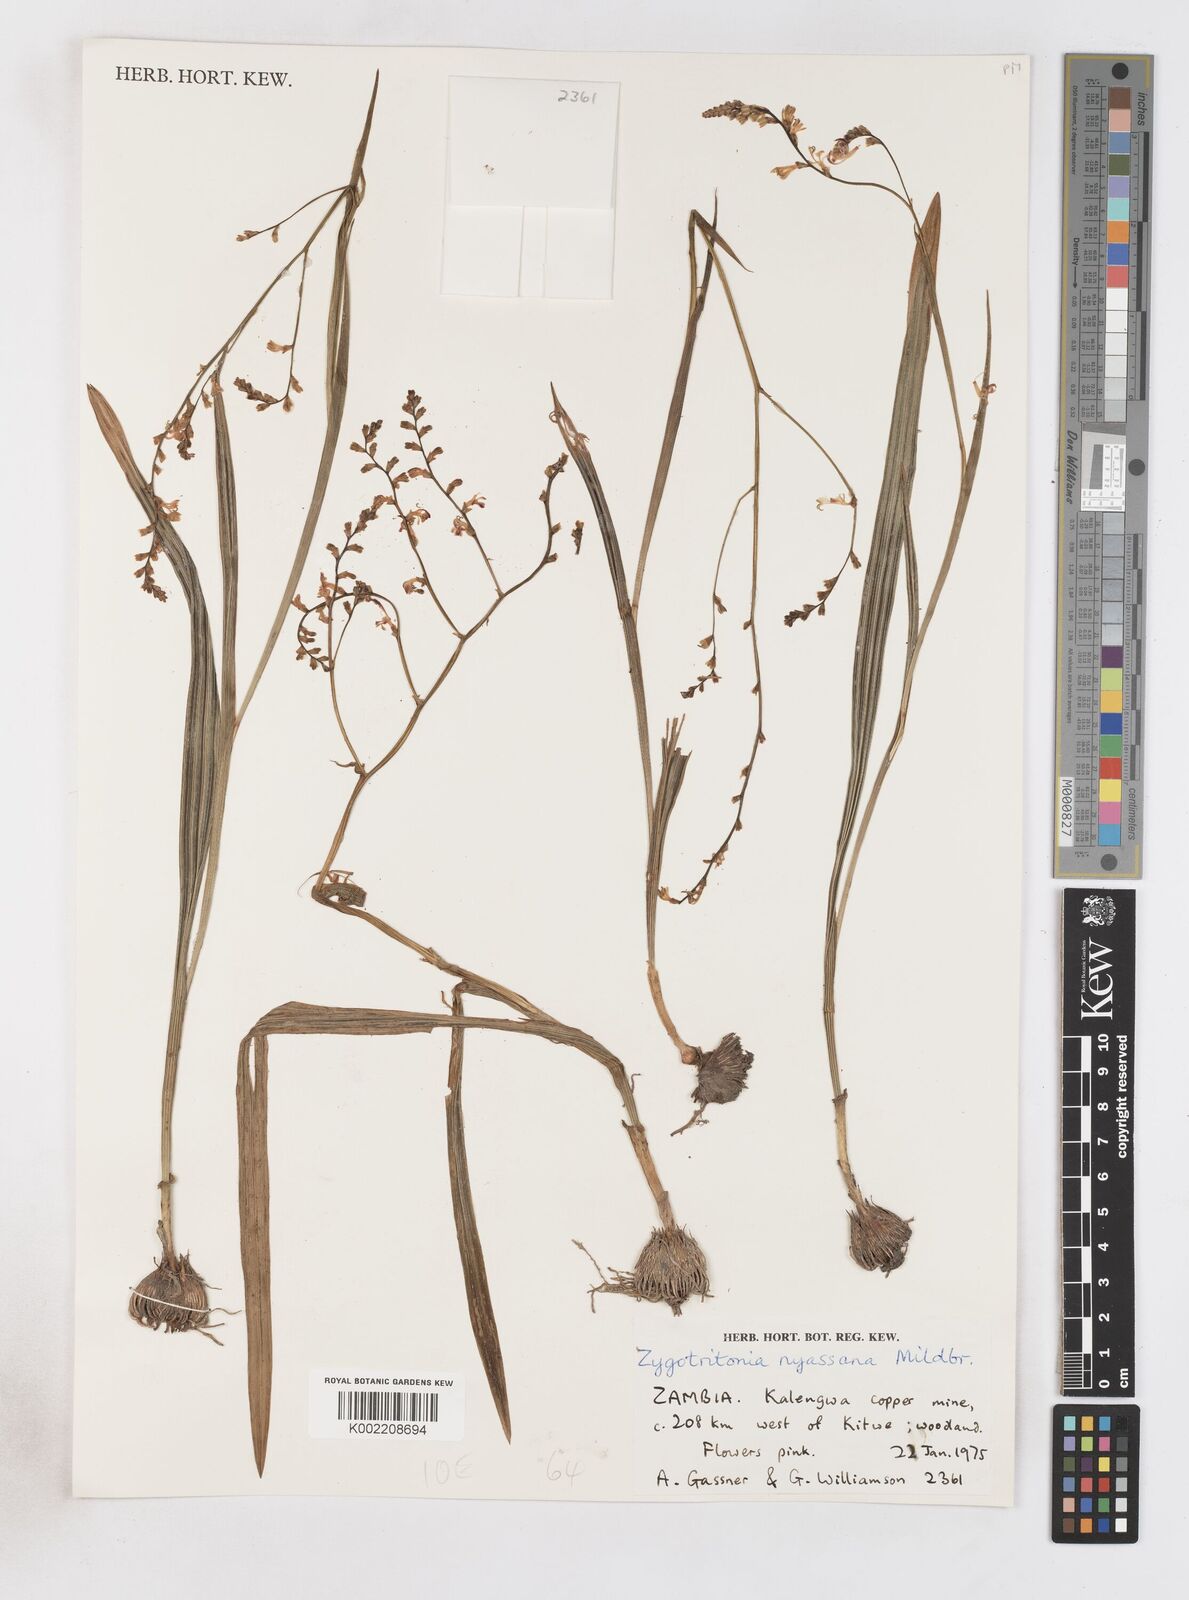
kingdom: Plantae
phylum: Tracheophyta
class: Liliopsida
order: Asparagales
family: Iridaceae
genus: Zygotritonia
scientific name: Zygotritonia nyassana
